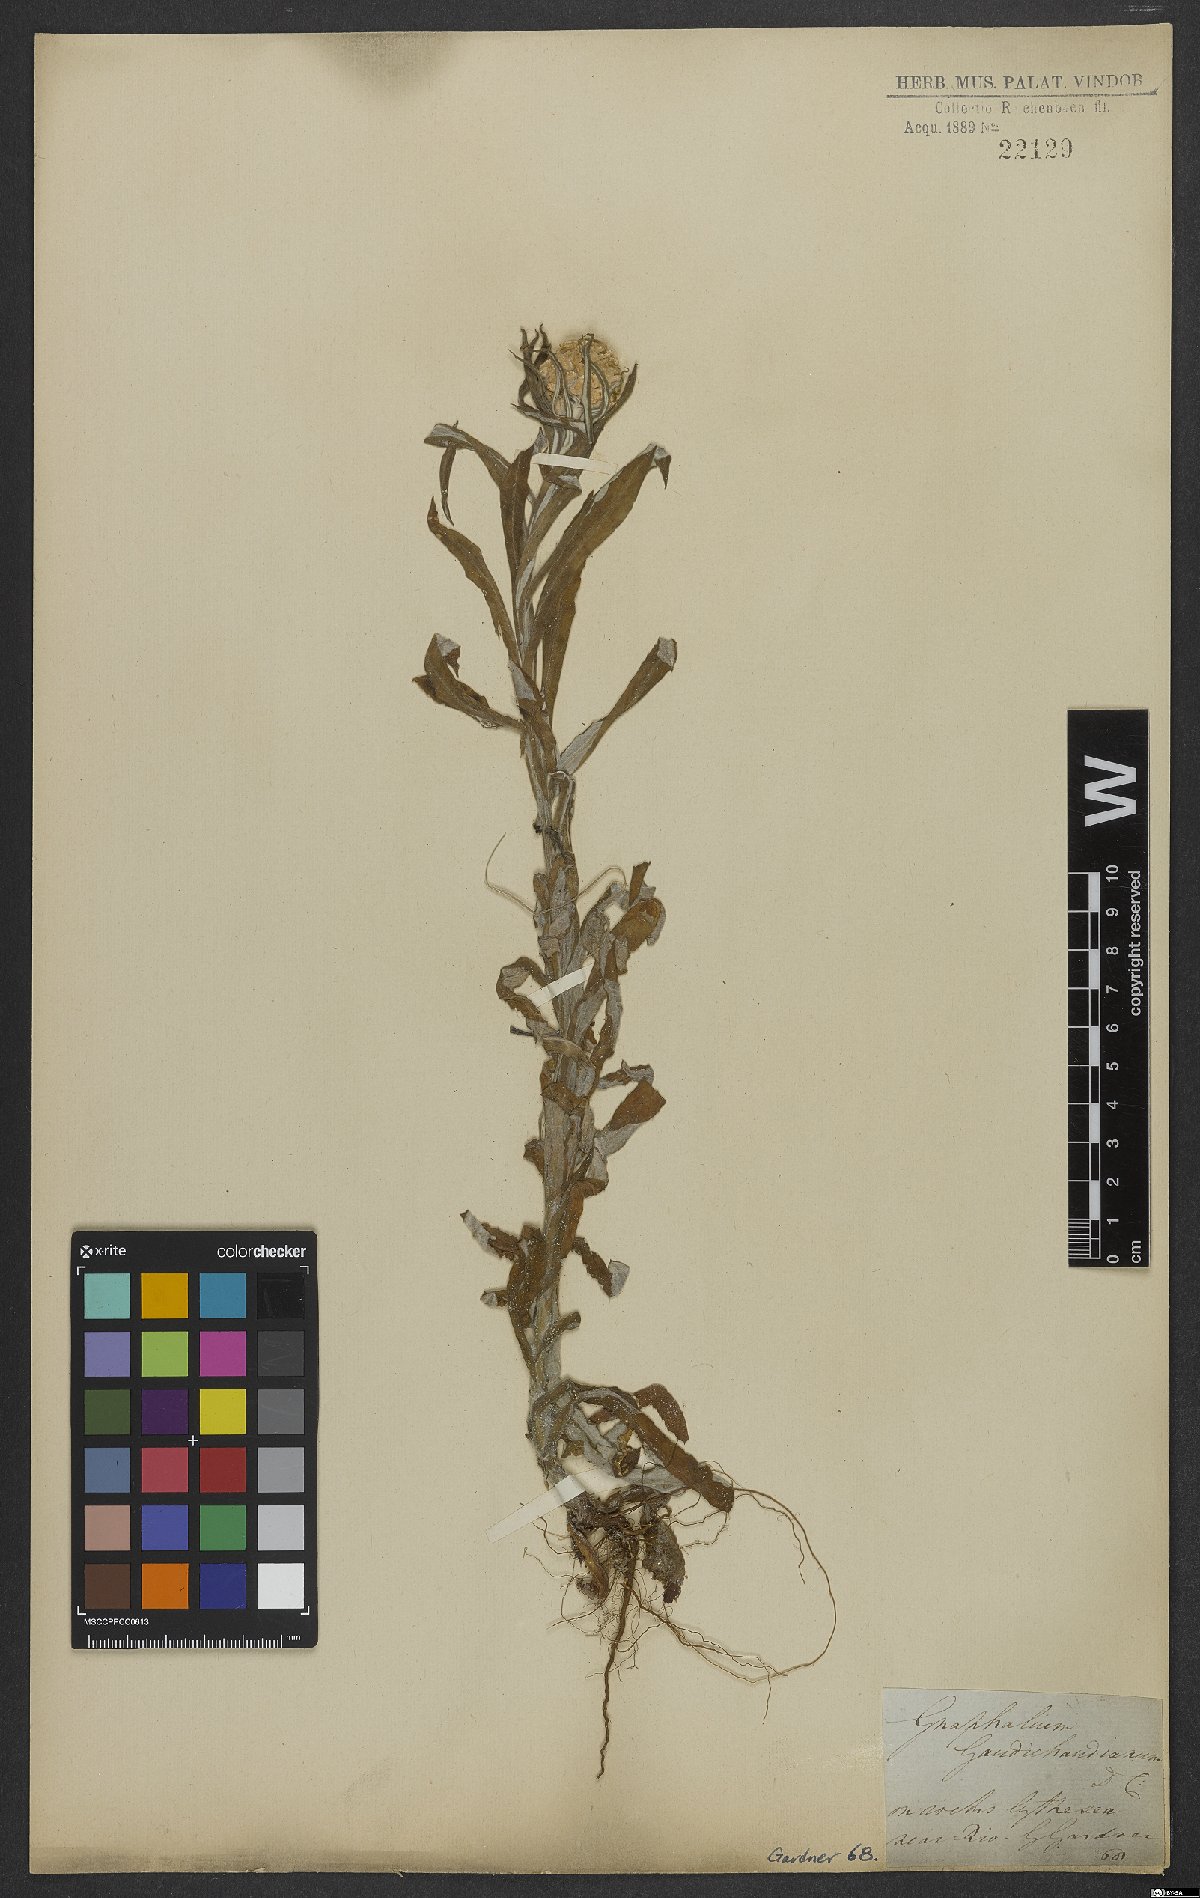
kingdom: Plantae
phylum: Tracheophyta
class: Magnoliopsida
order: Asterales
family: Asteraceae
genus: Pseudognaphalium
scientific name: Pseudognaphalium gaudichaudianum
